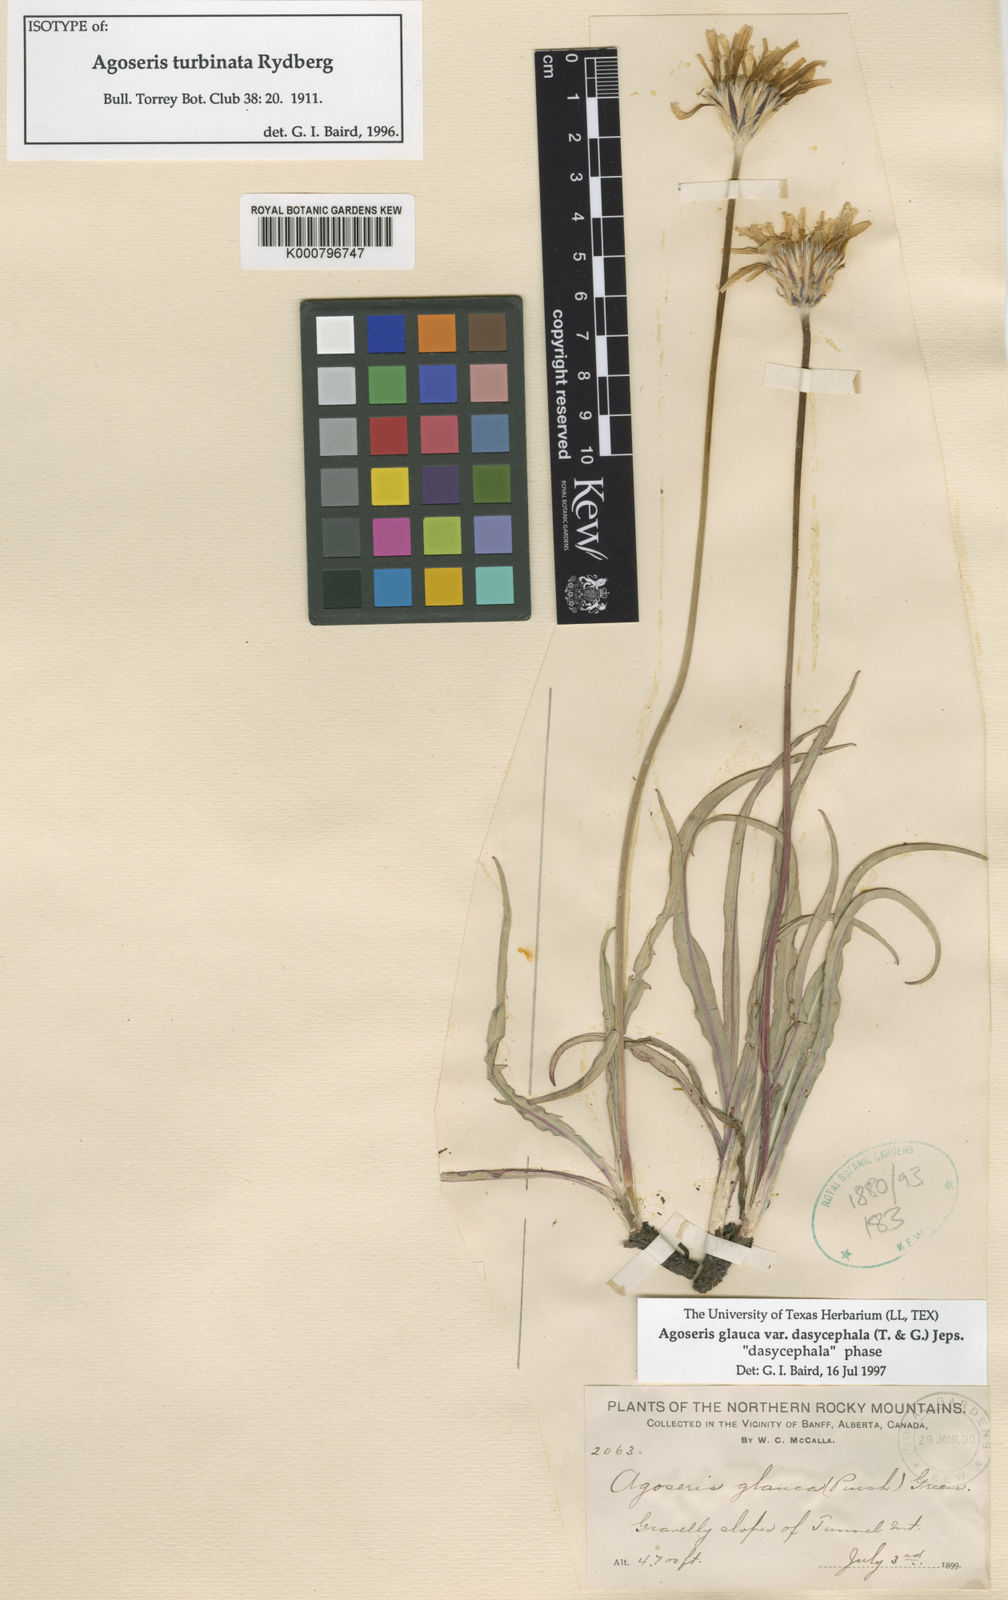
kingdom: Plantae
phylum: Tracheophyta
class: Magnoliopsida
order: Asterales
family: Asteraceae
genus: Agoseris
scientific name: Agoseris glauca
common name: Prairie agoseris
